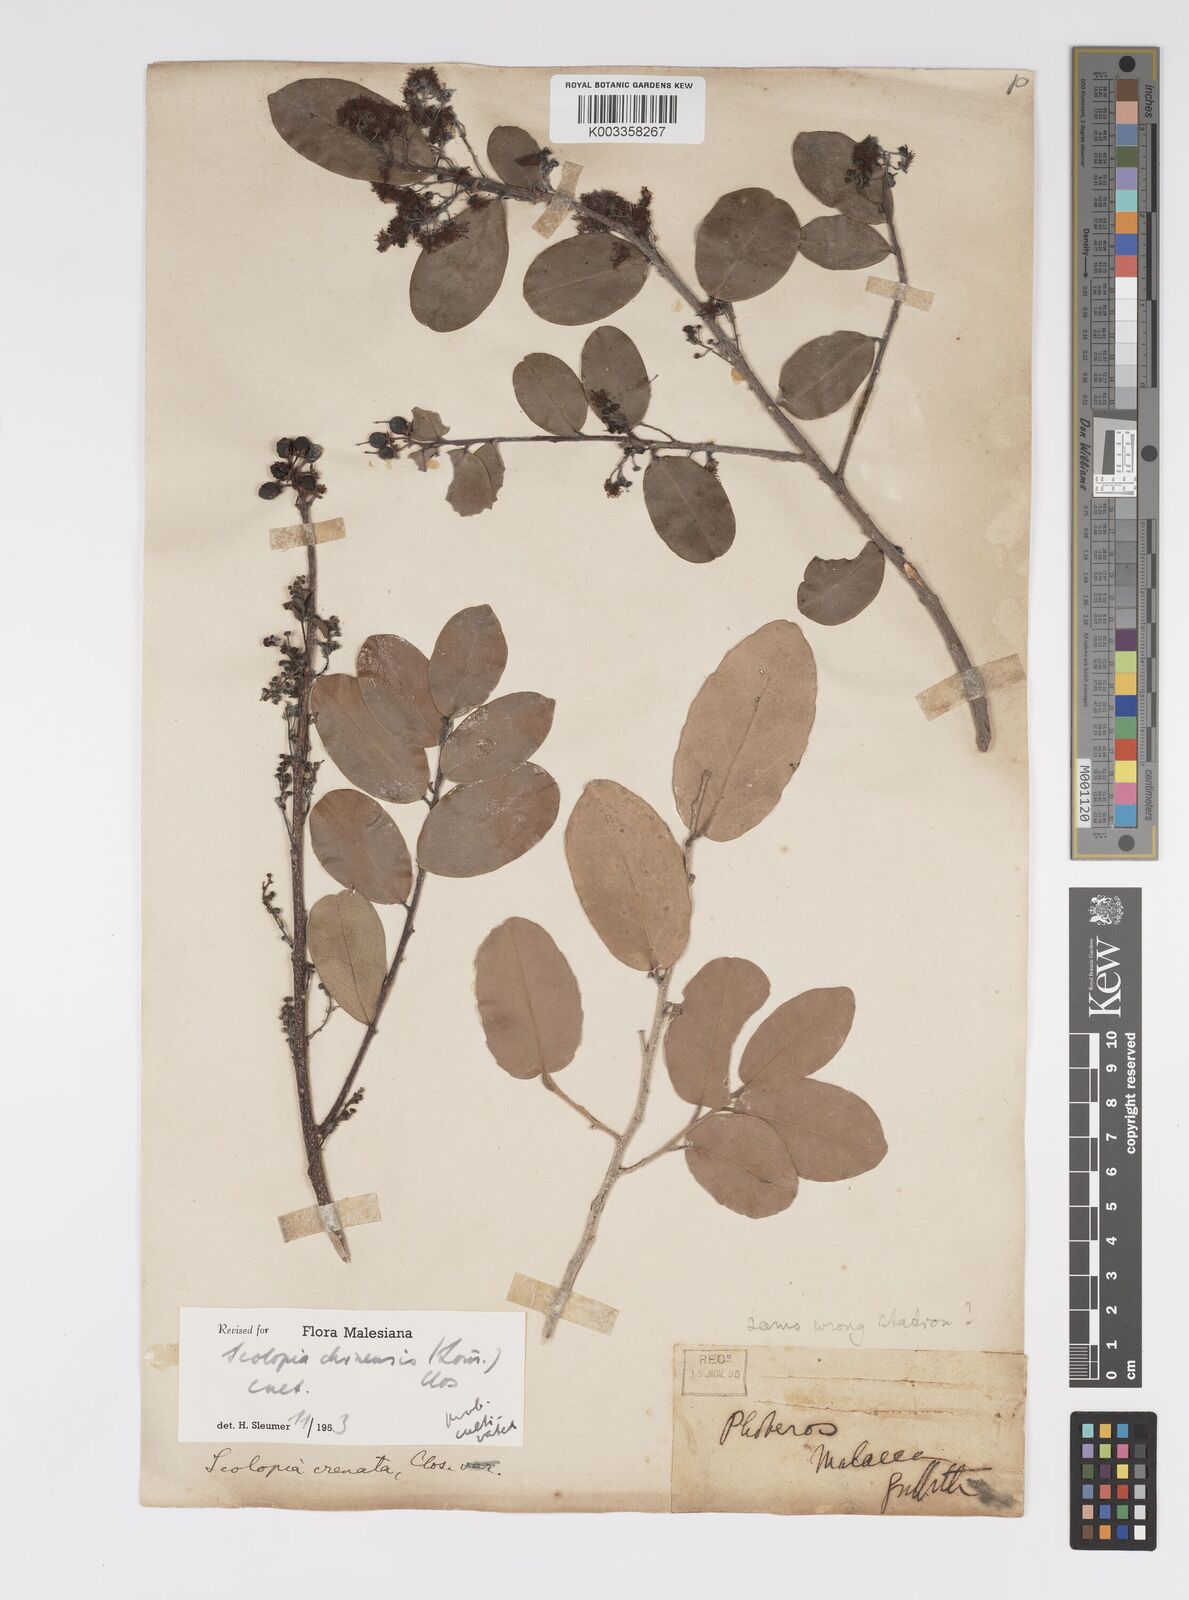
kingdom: Plantae
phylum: Tracheophyta
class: Magnoliopsida
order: Malpighiales
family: Salicaceae
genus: Scolopia
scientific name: Scolopia chinensis
